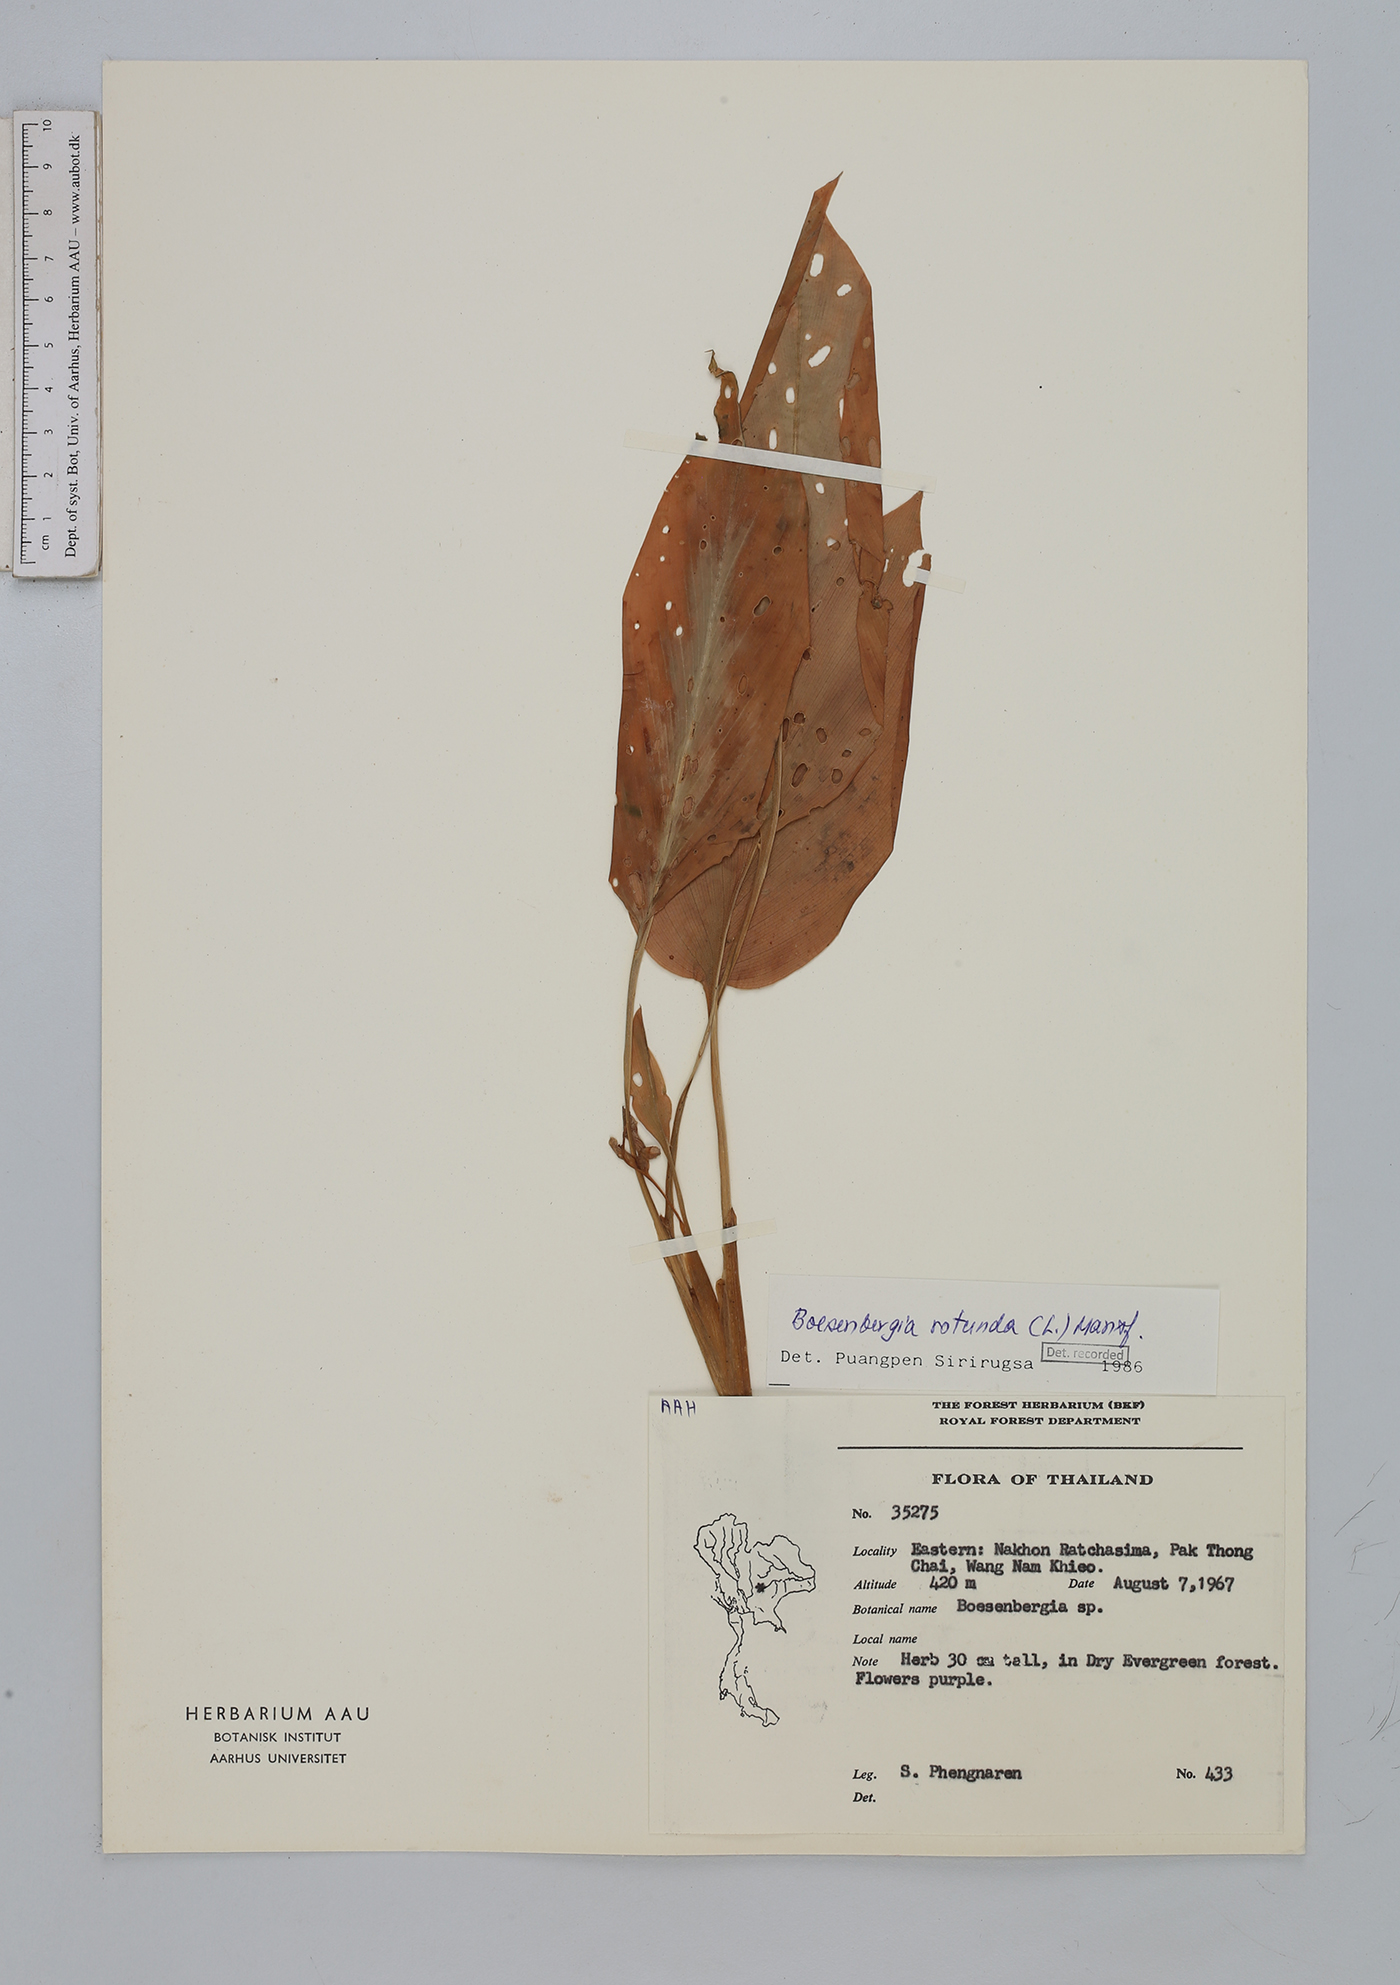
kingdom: Plantae
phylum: Tracheophyta
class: Liliopsida
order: Zingiberales
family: Zingiberaceae
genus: Boesenbergia
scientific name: Boesenbergia rotunda
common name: Chinese ginger
